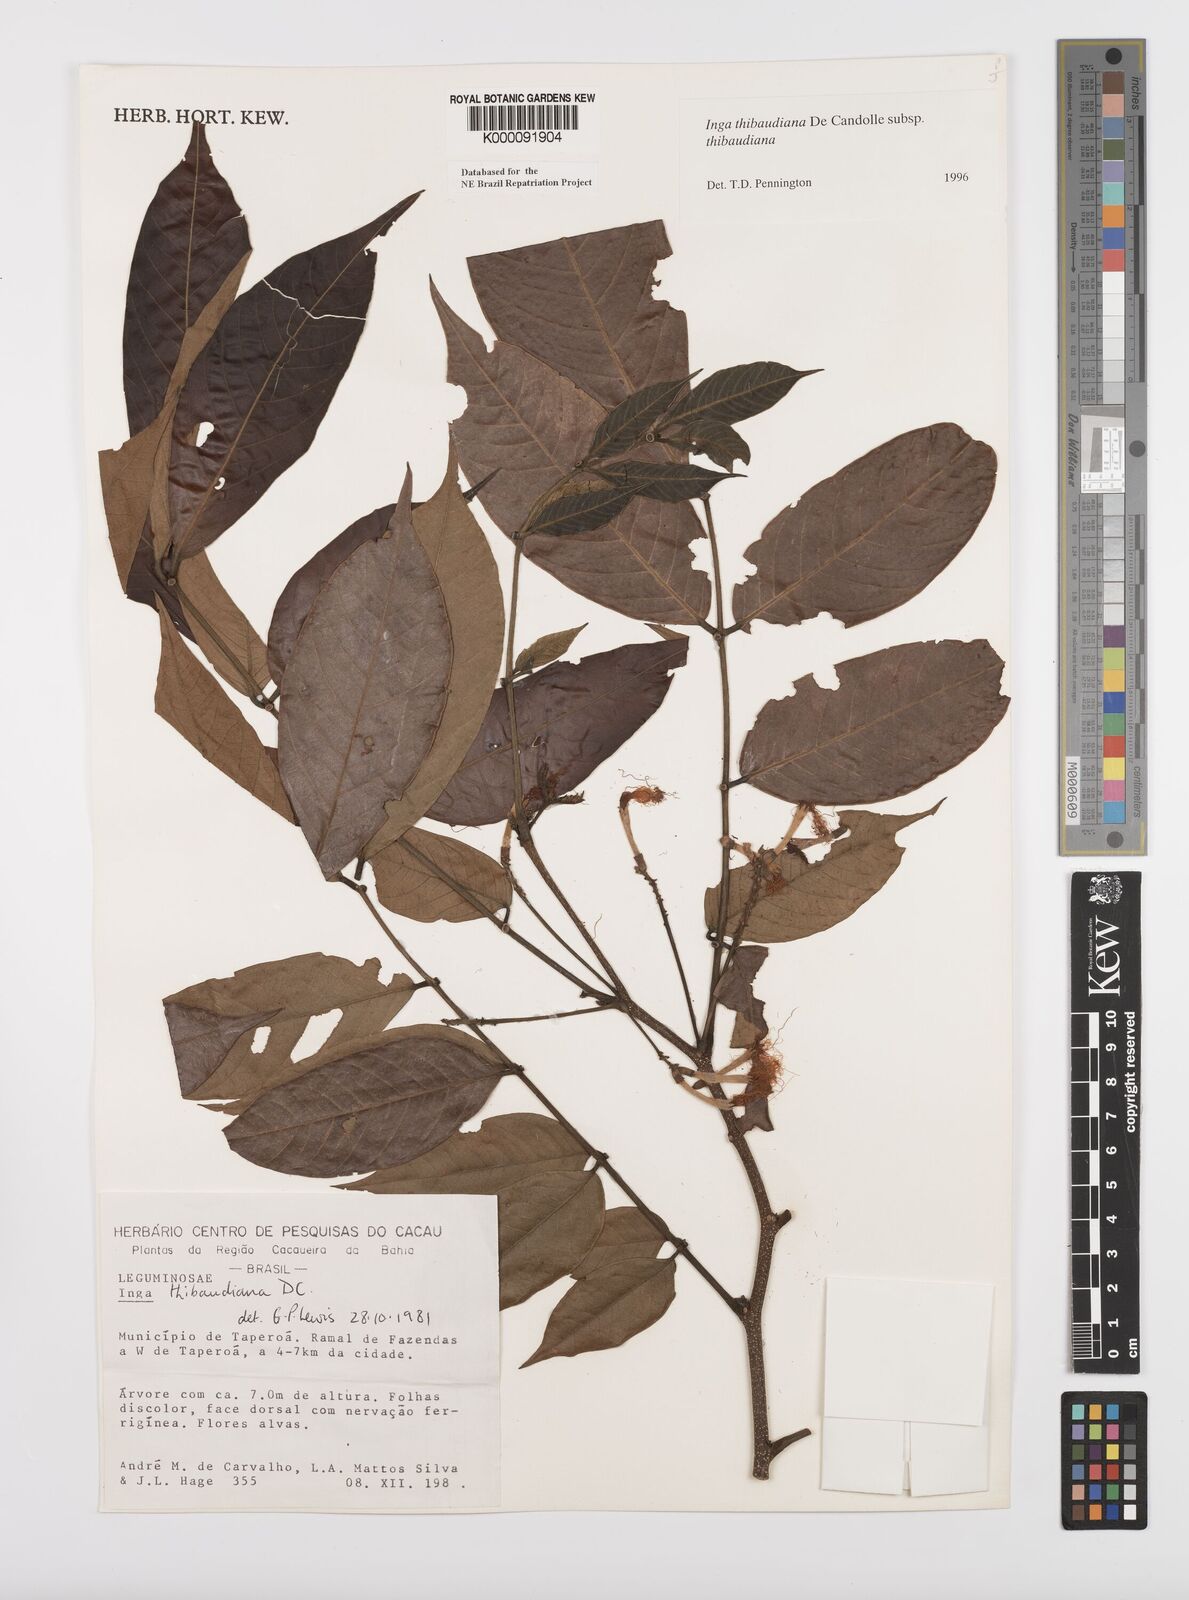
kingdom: Plantae
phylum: Tracheophyta
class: Magnoliopsida
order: Fabales
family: Fabaceae
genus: Inga
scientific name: Inga thibaudiana
